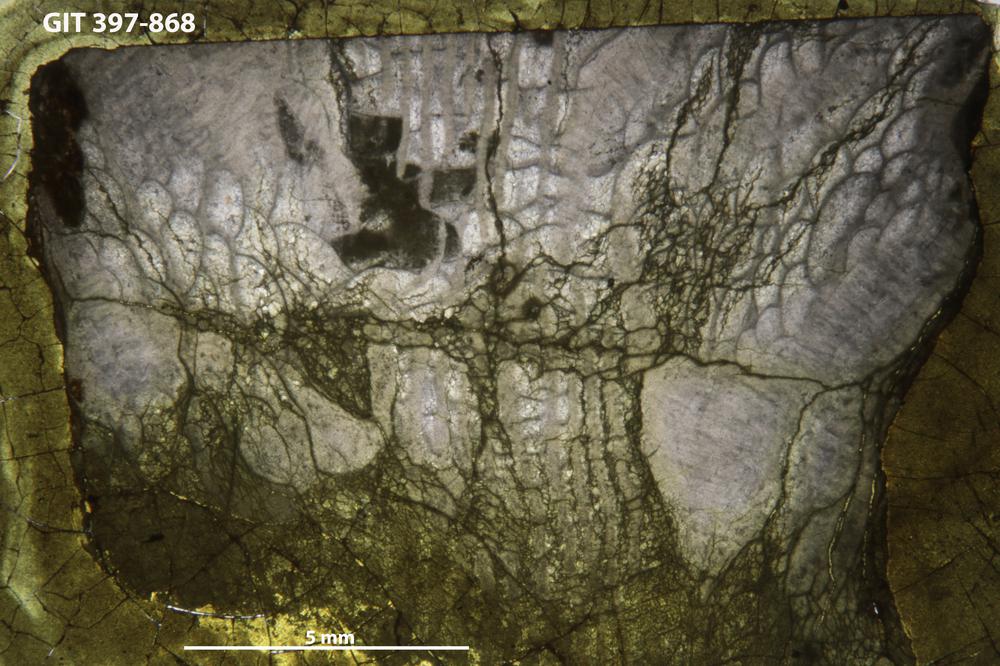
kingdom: Animalia
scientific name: Animalia
